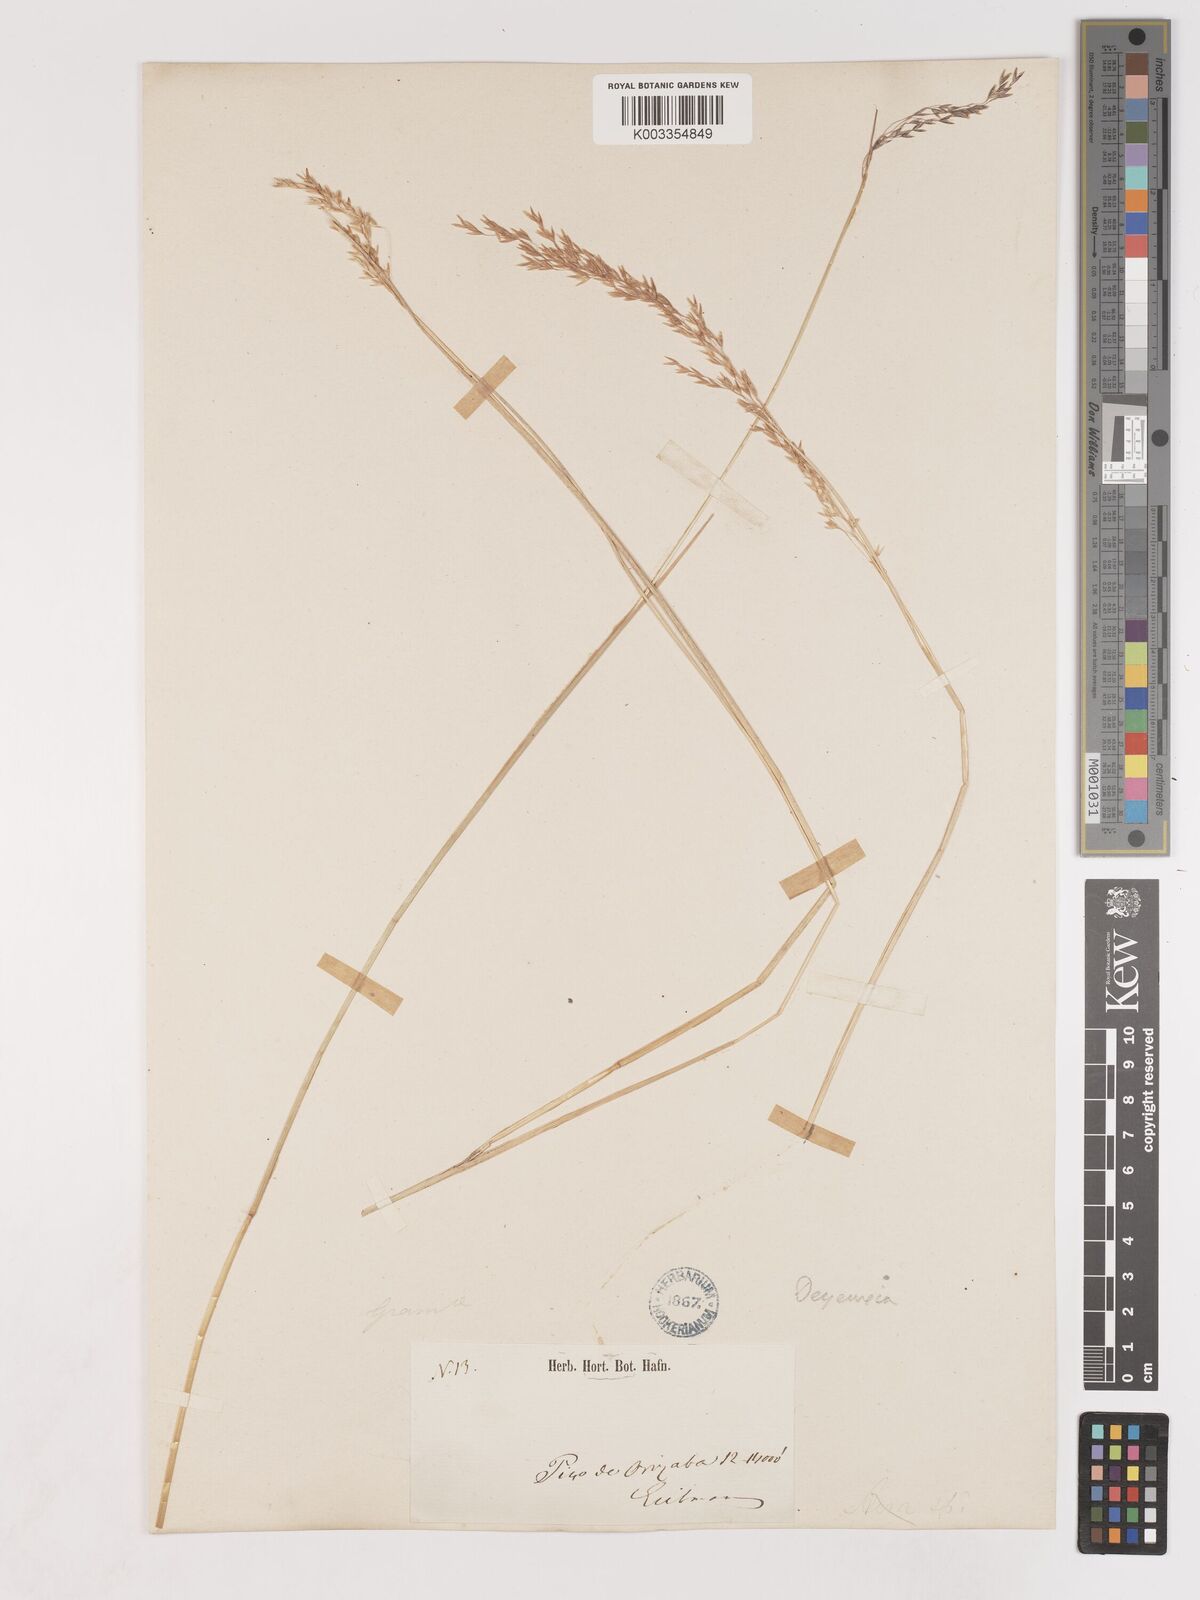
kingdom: Plantae
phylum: Tracheophyta
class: Liliopsida
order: Poales
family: Poaceae
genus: Peyritschia
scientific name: Peyritschia eriantha
